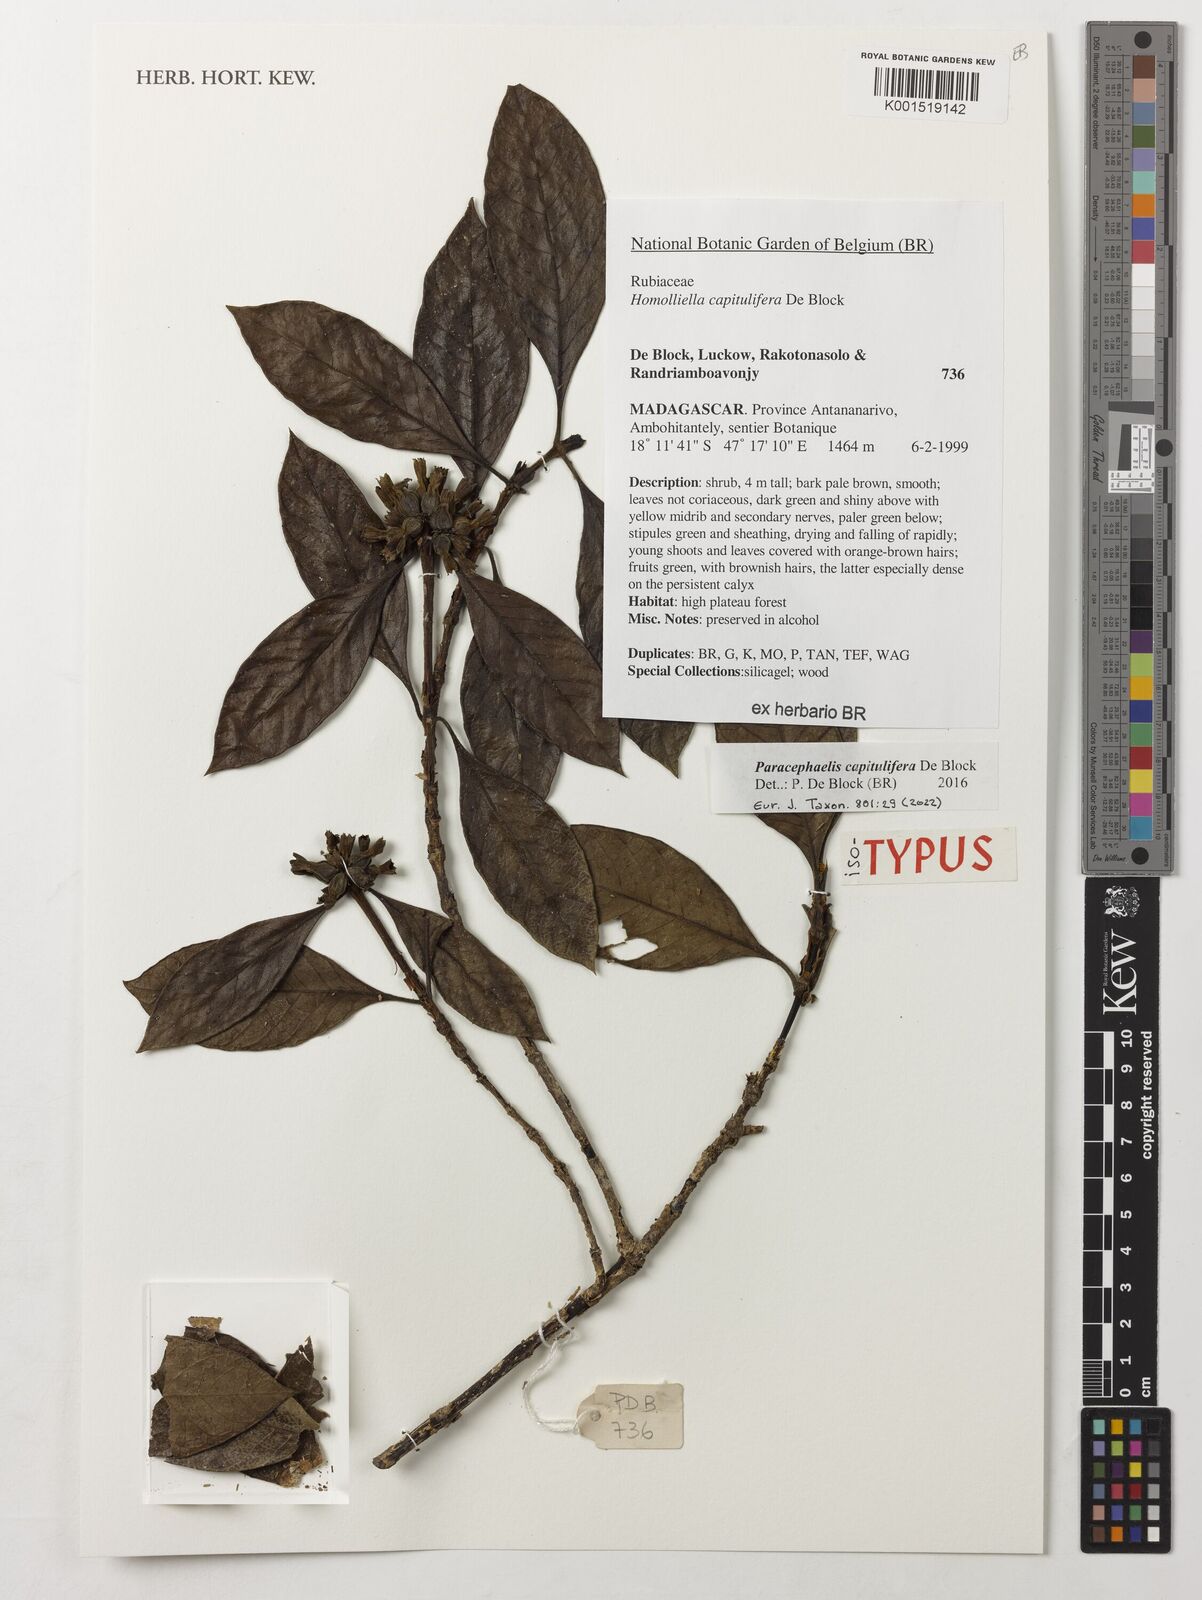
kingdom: Plantae
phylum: Tracheophyta
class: Magnoliopsida
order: Gentianales
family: Rubiaceae
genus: Paracephaelis
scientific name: Paracephaelis
